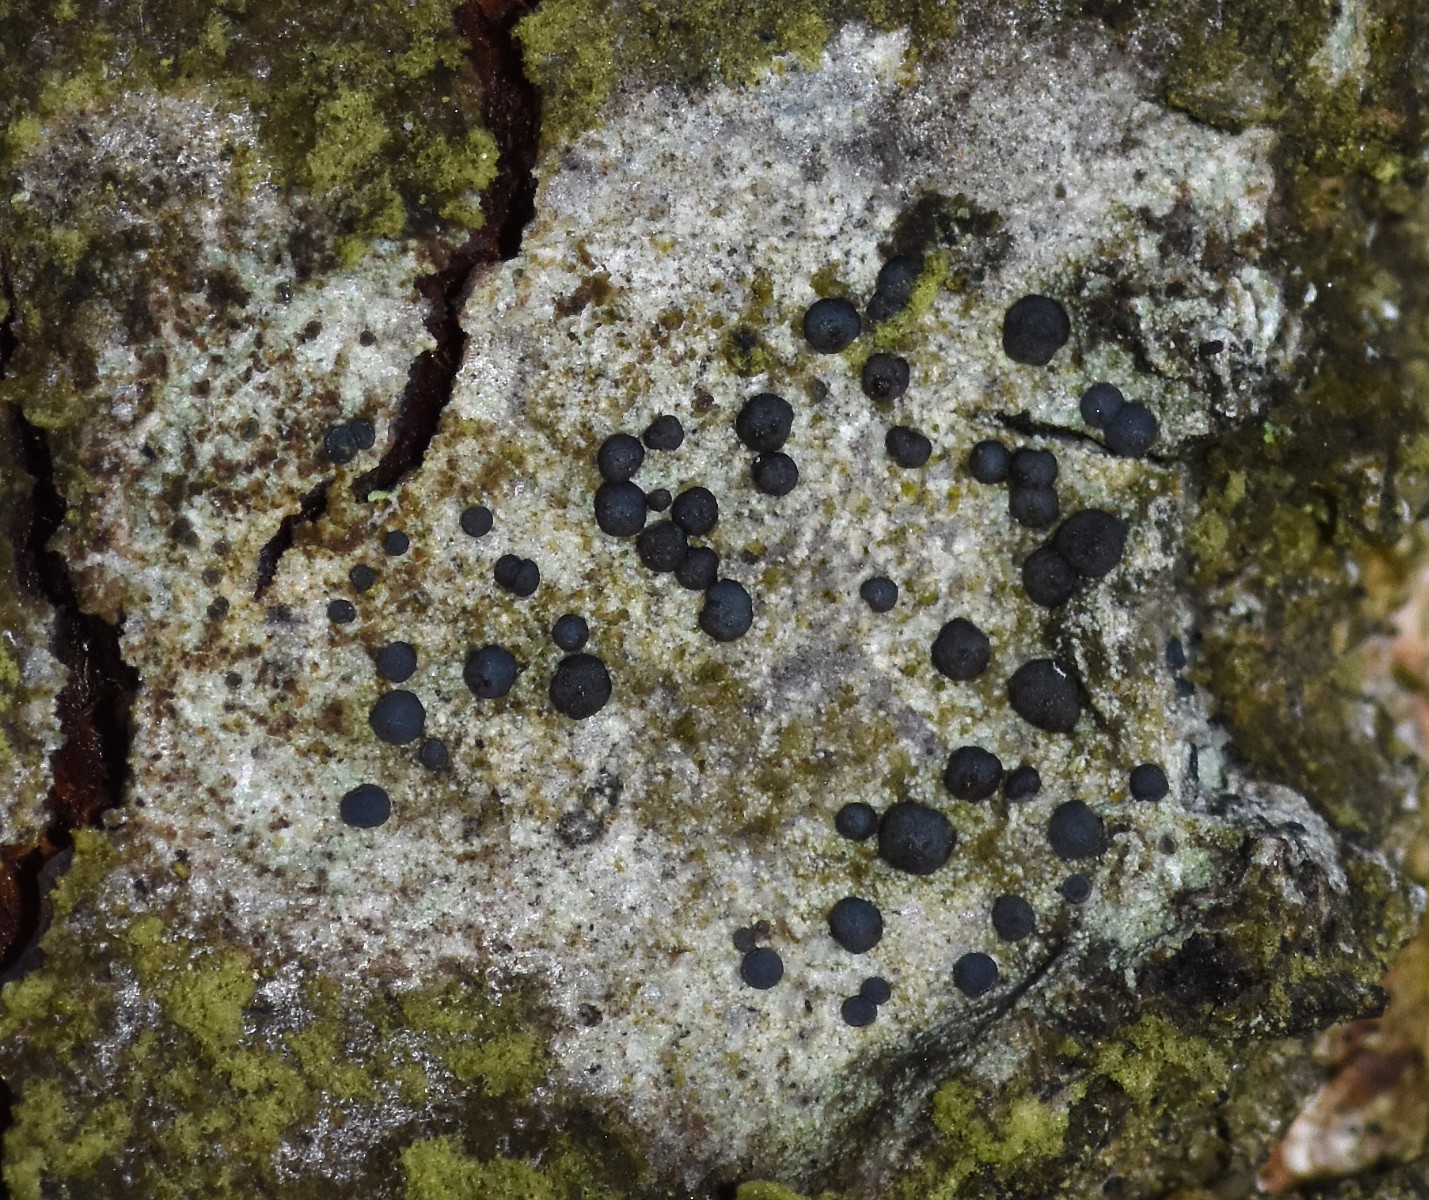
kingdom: Fungi
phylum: Ascomycota
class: Lecanoromycetes
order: Lecanorales
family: Lecanoraceae
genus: Lecidella
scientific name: Lecidella elaeochroma
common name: grågrøn skivelav
